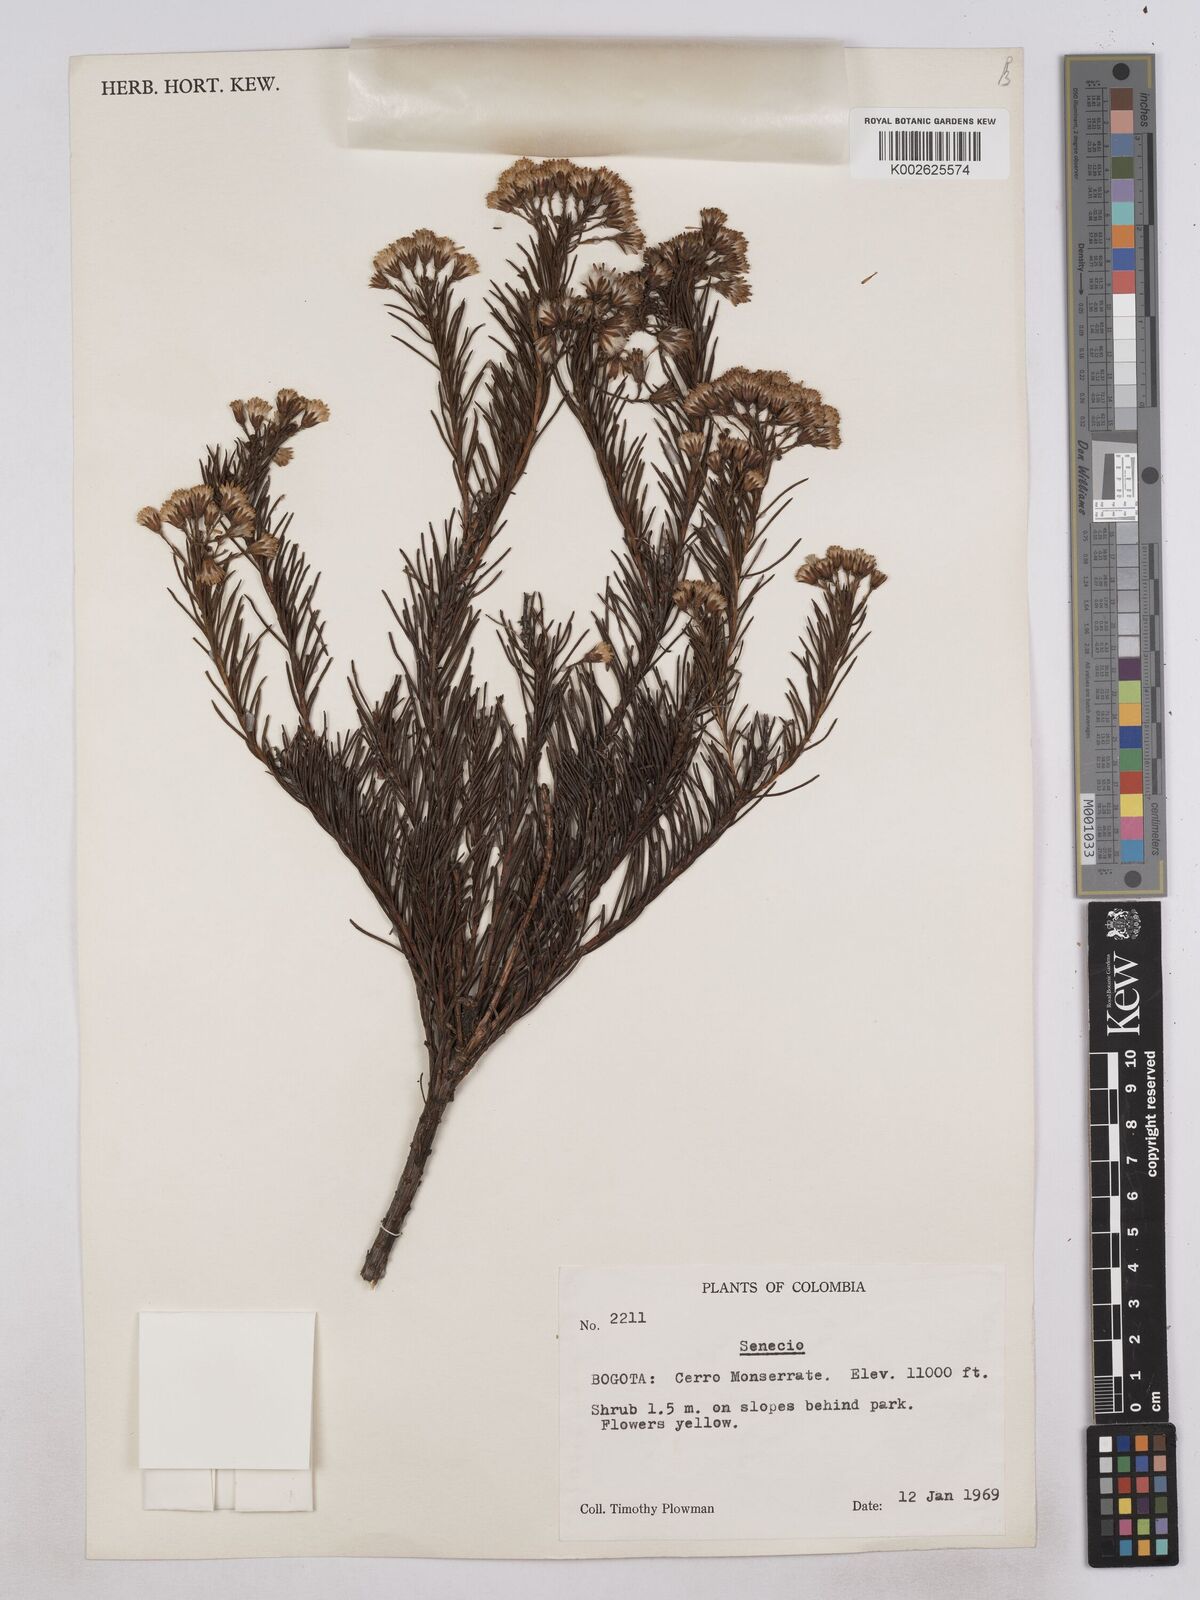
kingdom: Plantae
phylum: Tracheophyta
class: Magnoliopsida
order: Asterales
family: Asteraceae
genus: Monticalia
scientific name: Monticalia abietina
